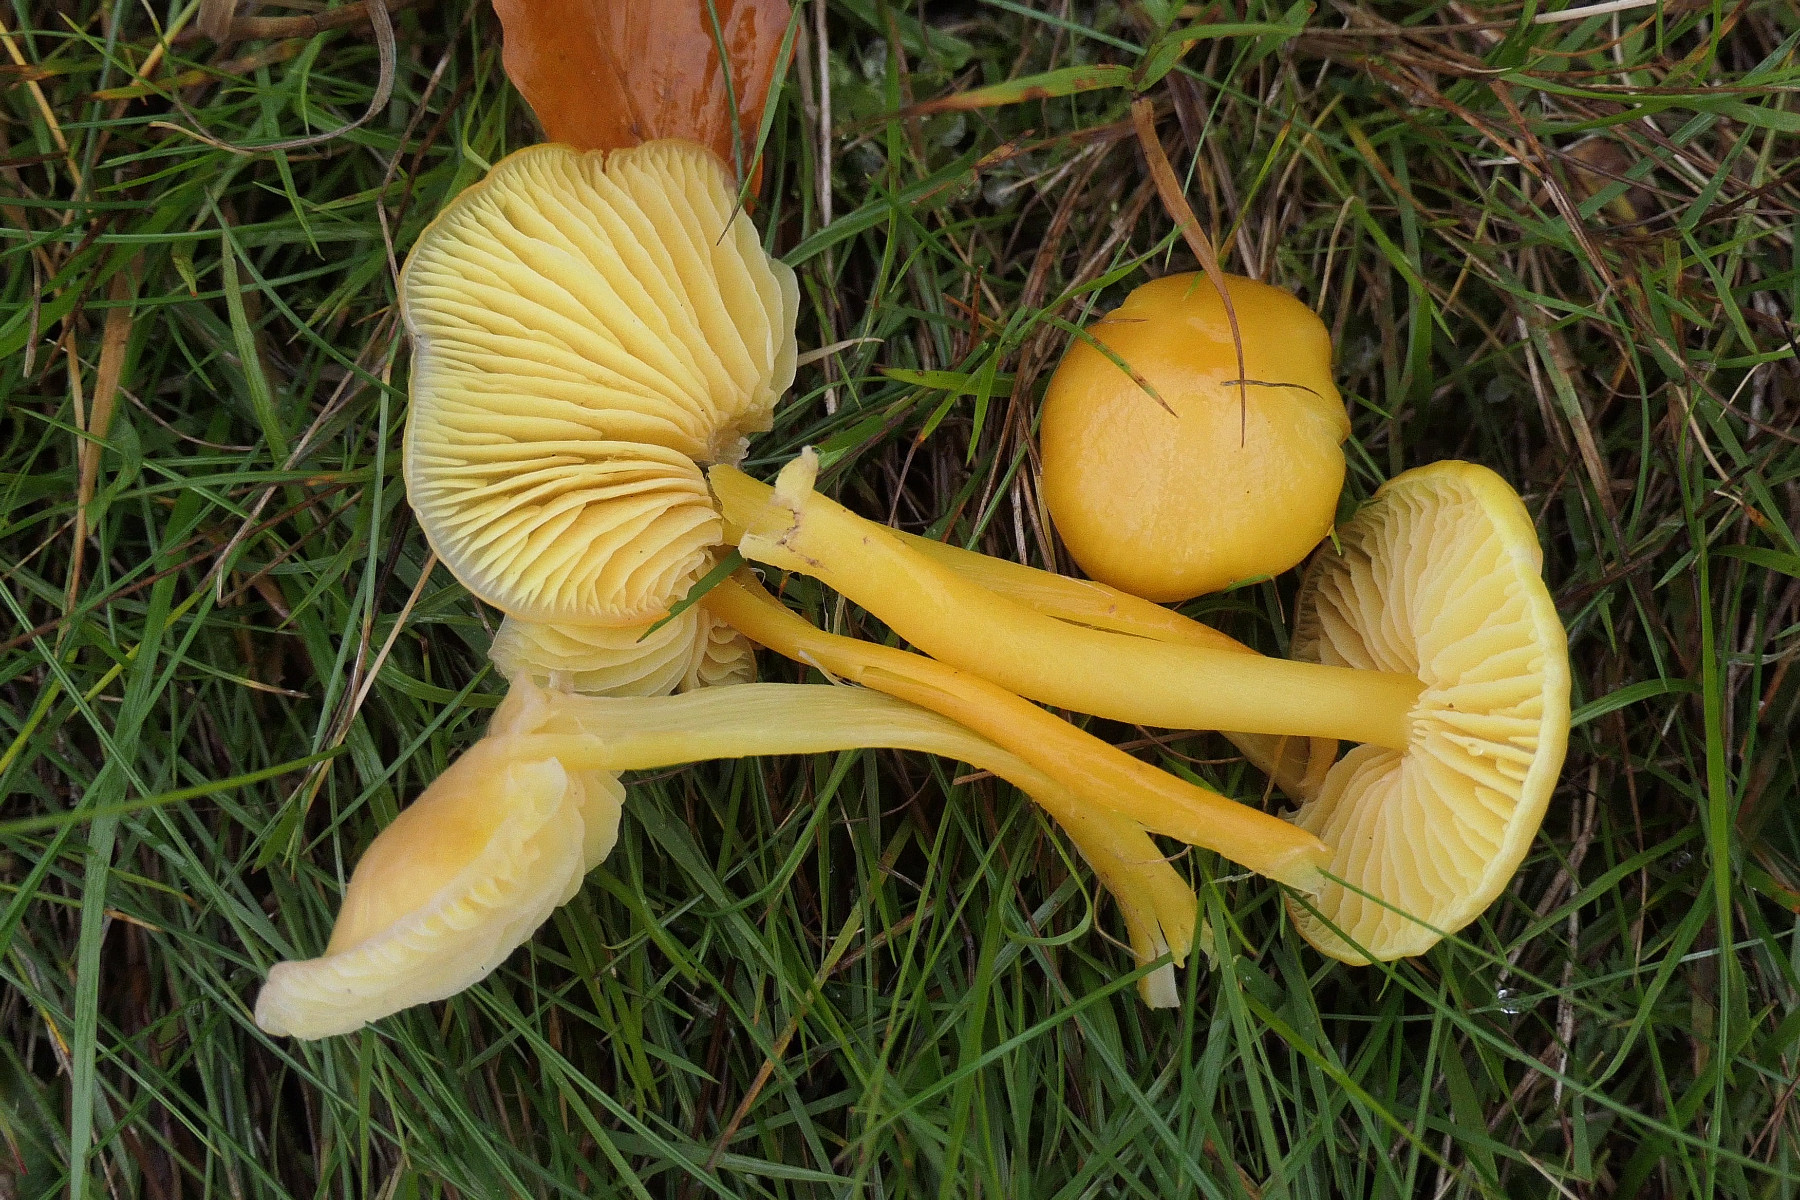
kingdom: Fungi
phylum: Basidiomycota
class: Agaricomycetes
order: Agaricales
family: Hygrophoraceae
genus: Hygrocybe
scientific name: Hygrocybe chlorophana
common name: gul vokshat
